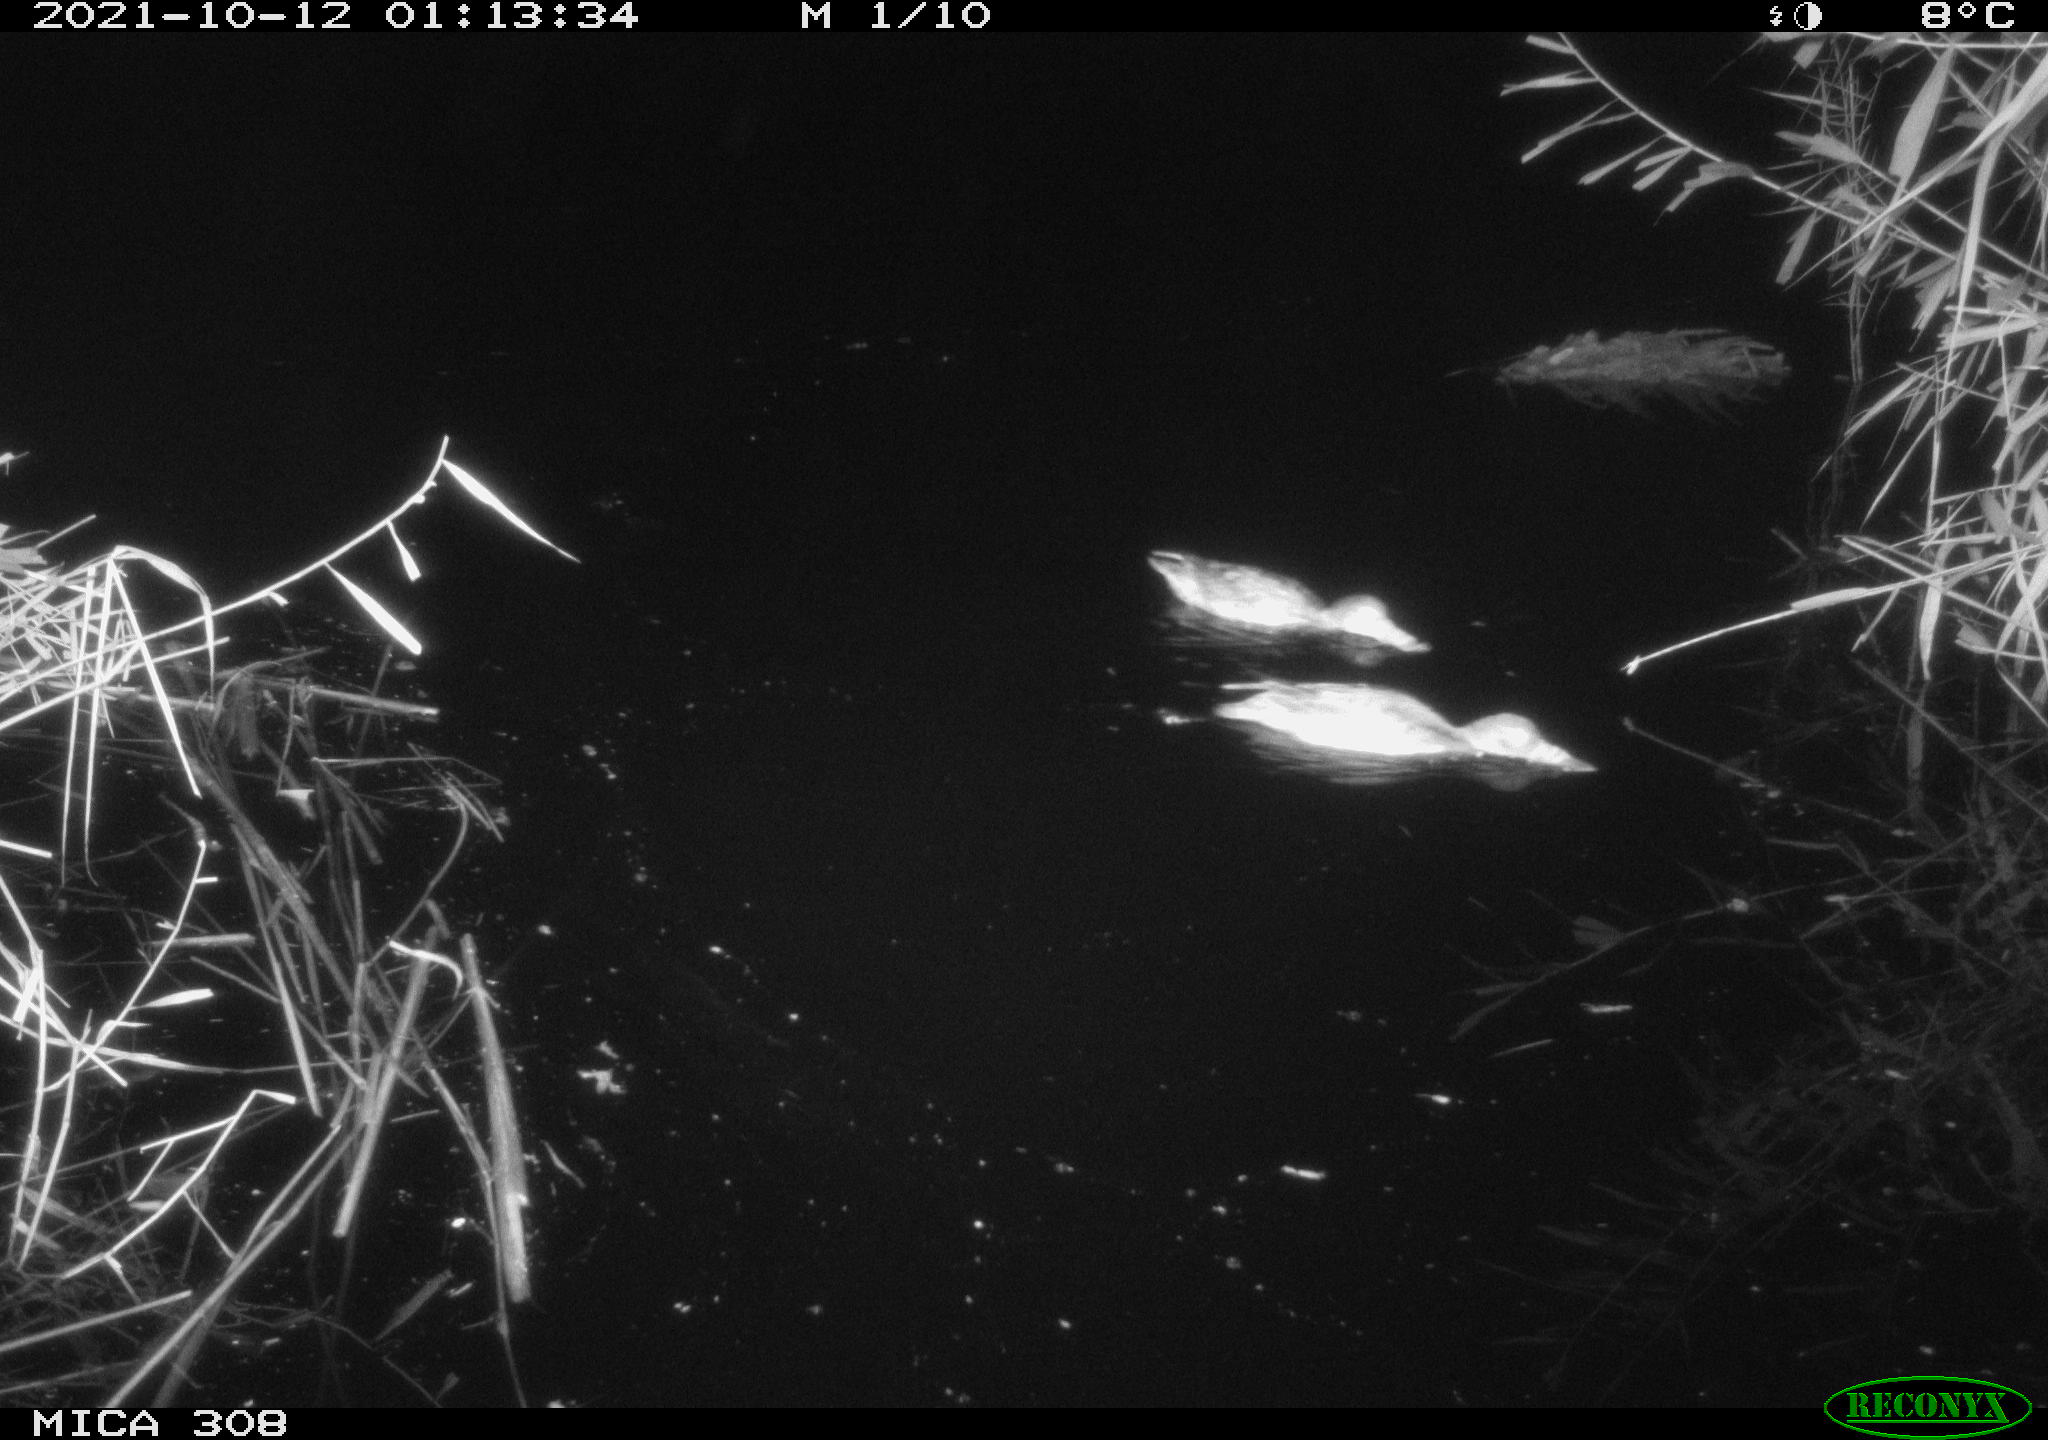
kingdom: Animalia
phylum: Chordata
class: Aves
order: Anseriformes
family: Anatidae
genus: Spatula
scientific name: Spatula clypeata
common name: Northern shoveler
